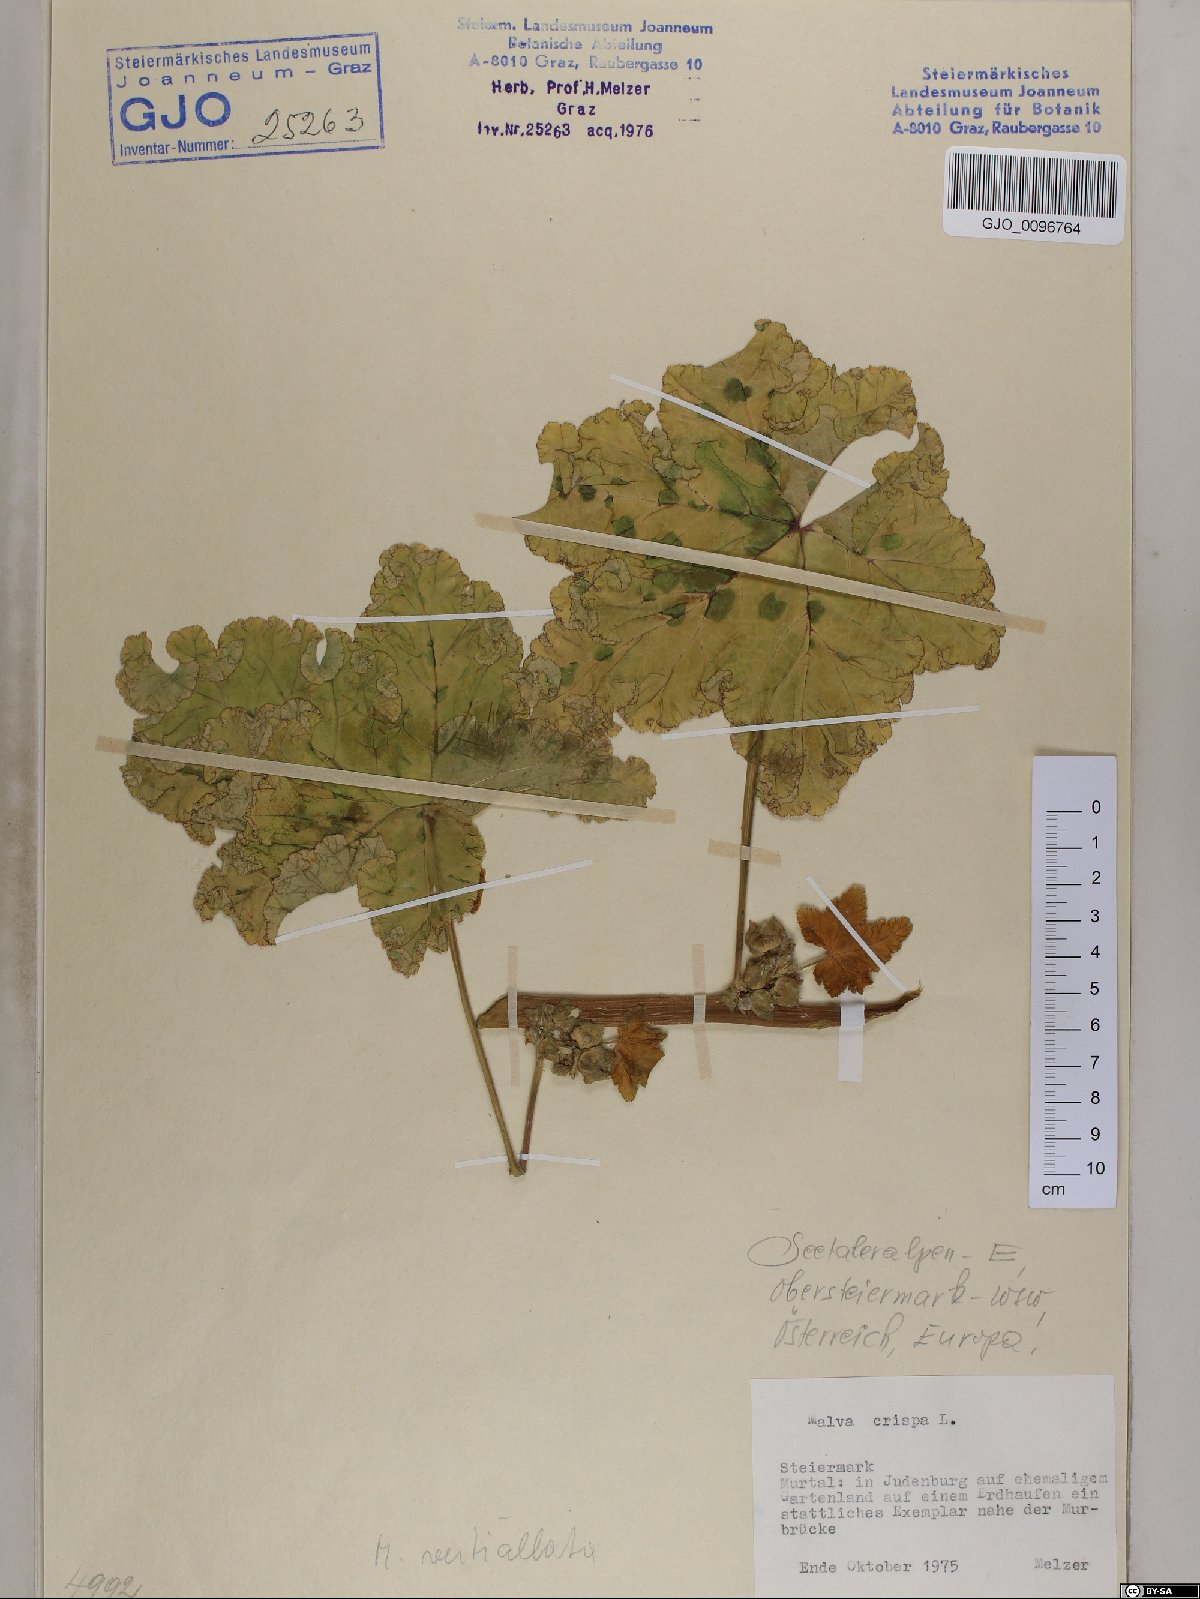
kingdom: Plantae
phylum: Tracheophyta
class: Magnoliopsida
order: Malvales
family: Malvaceae
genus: Malva
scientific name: Malva verticillata
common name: Chinese mallow
